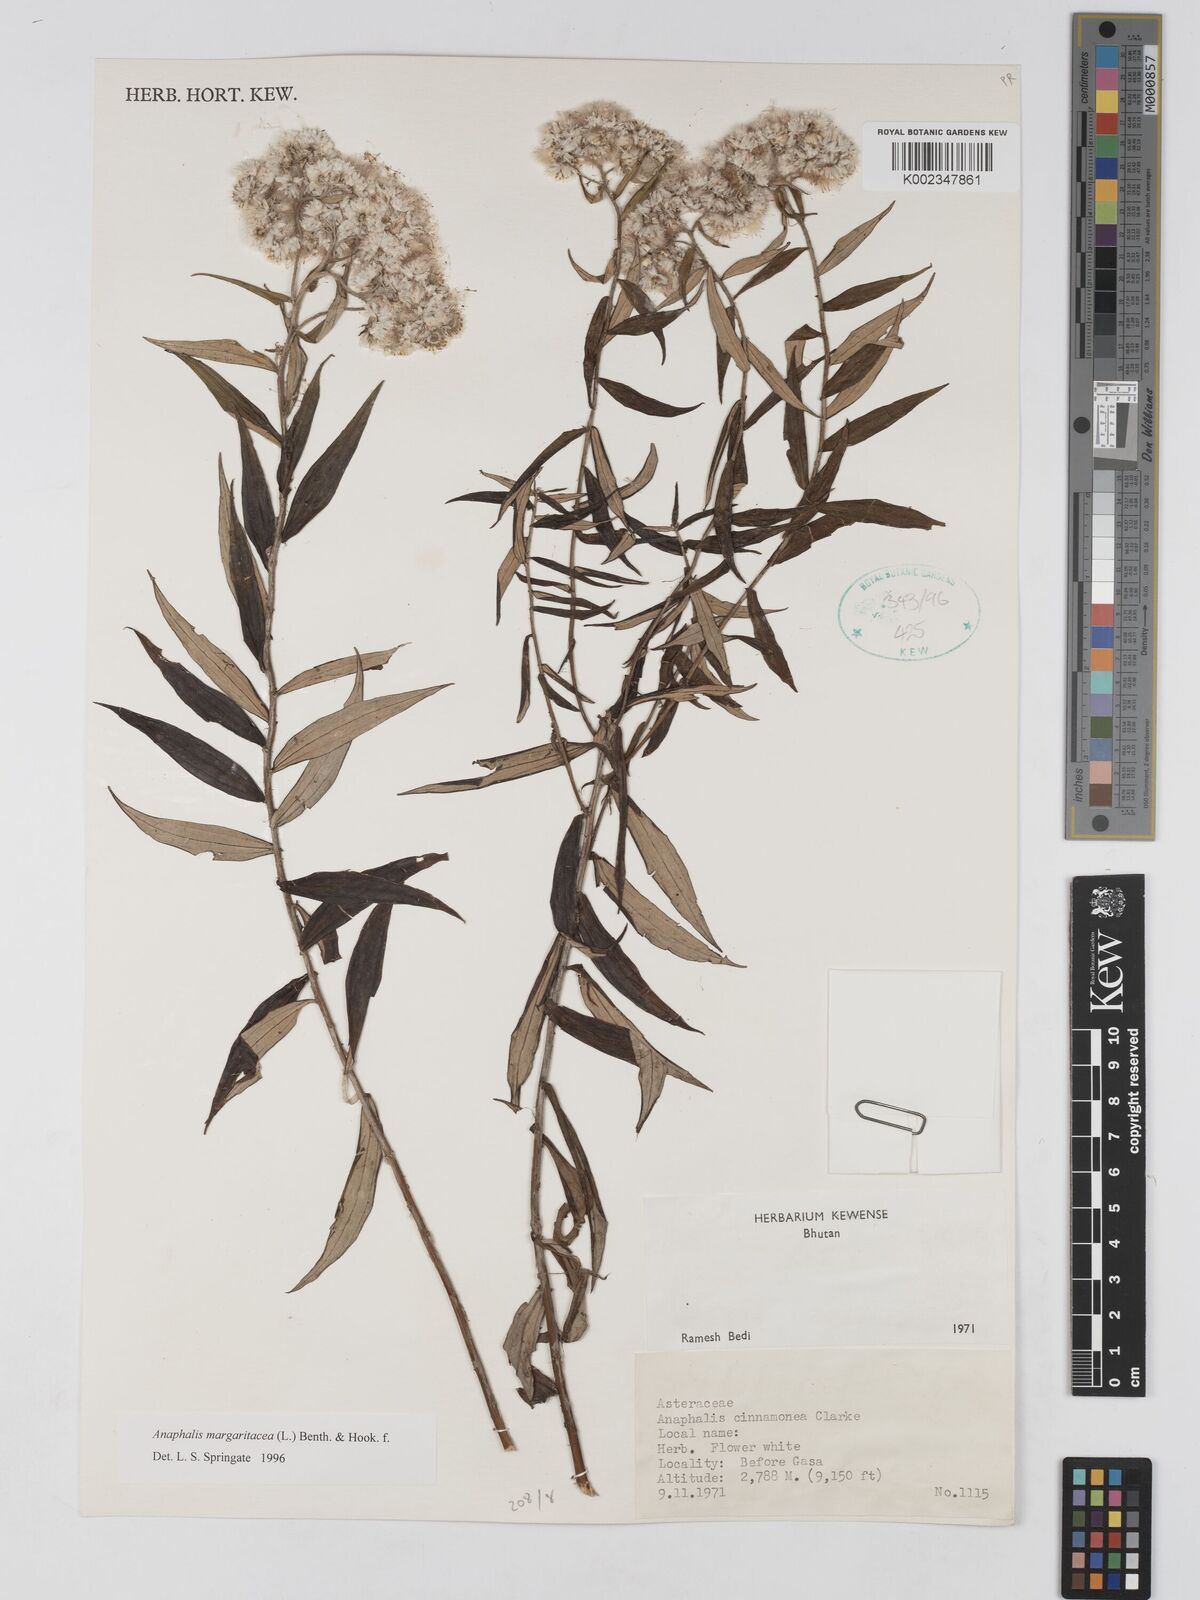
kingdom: Plantae
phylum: Tracheophyta
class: Magnoliopsida
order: Asterales
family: Asteraceae
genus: Anaphalis
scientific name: Anaphalis margaritacea
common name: Pearly everlasting
